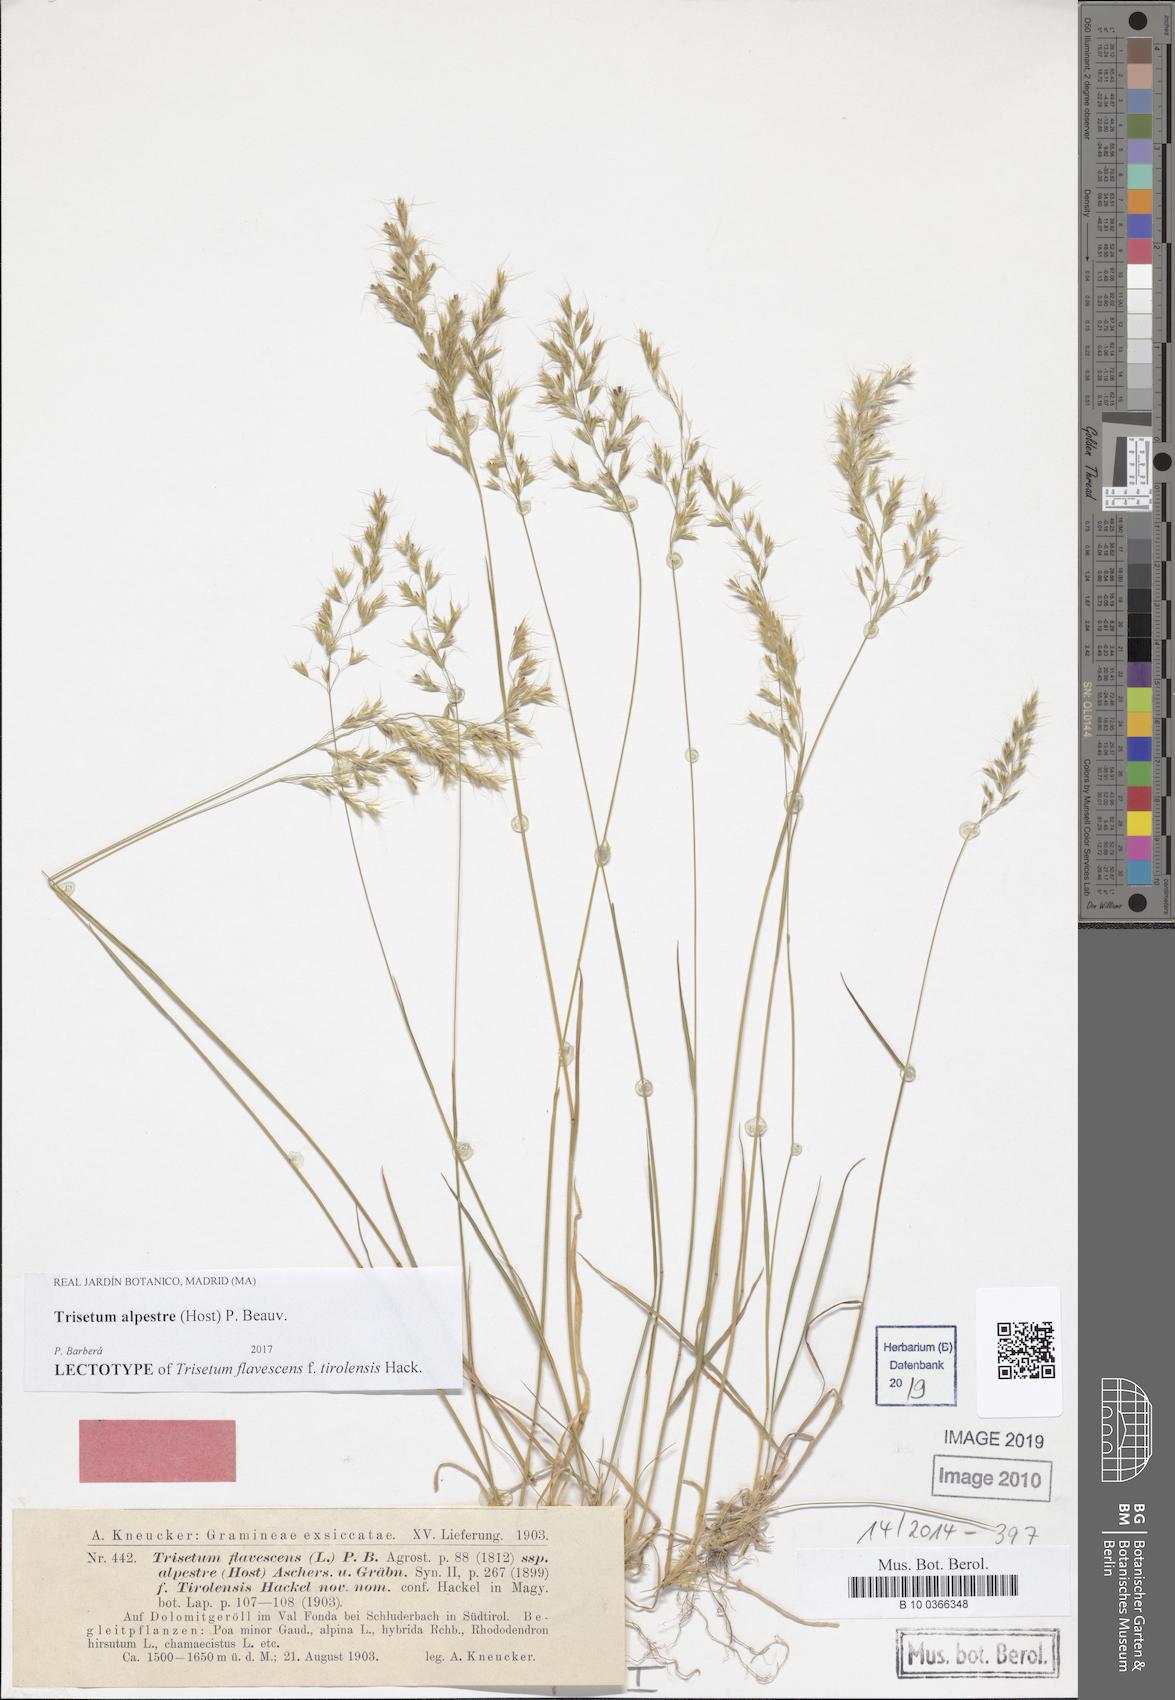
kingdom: Plantae
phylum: Tracheophyta
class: Liliopsida
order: Poales
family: Poaceae
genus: Trisetum
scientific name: Trisetum alpestre
